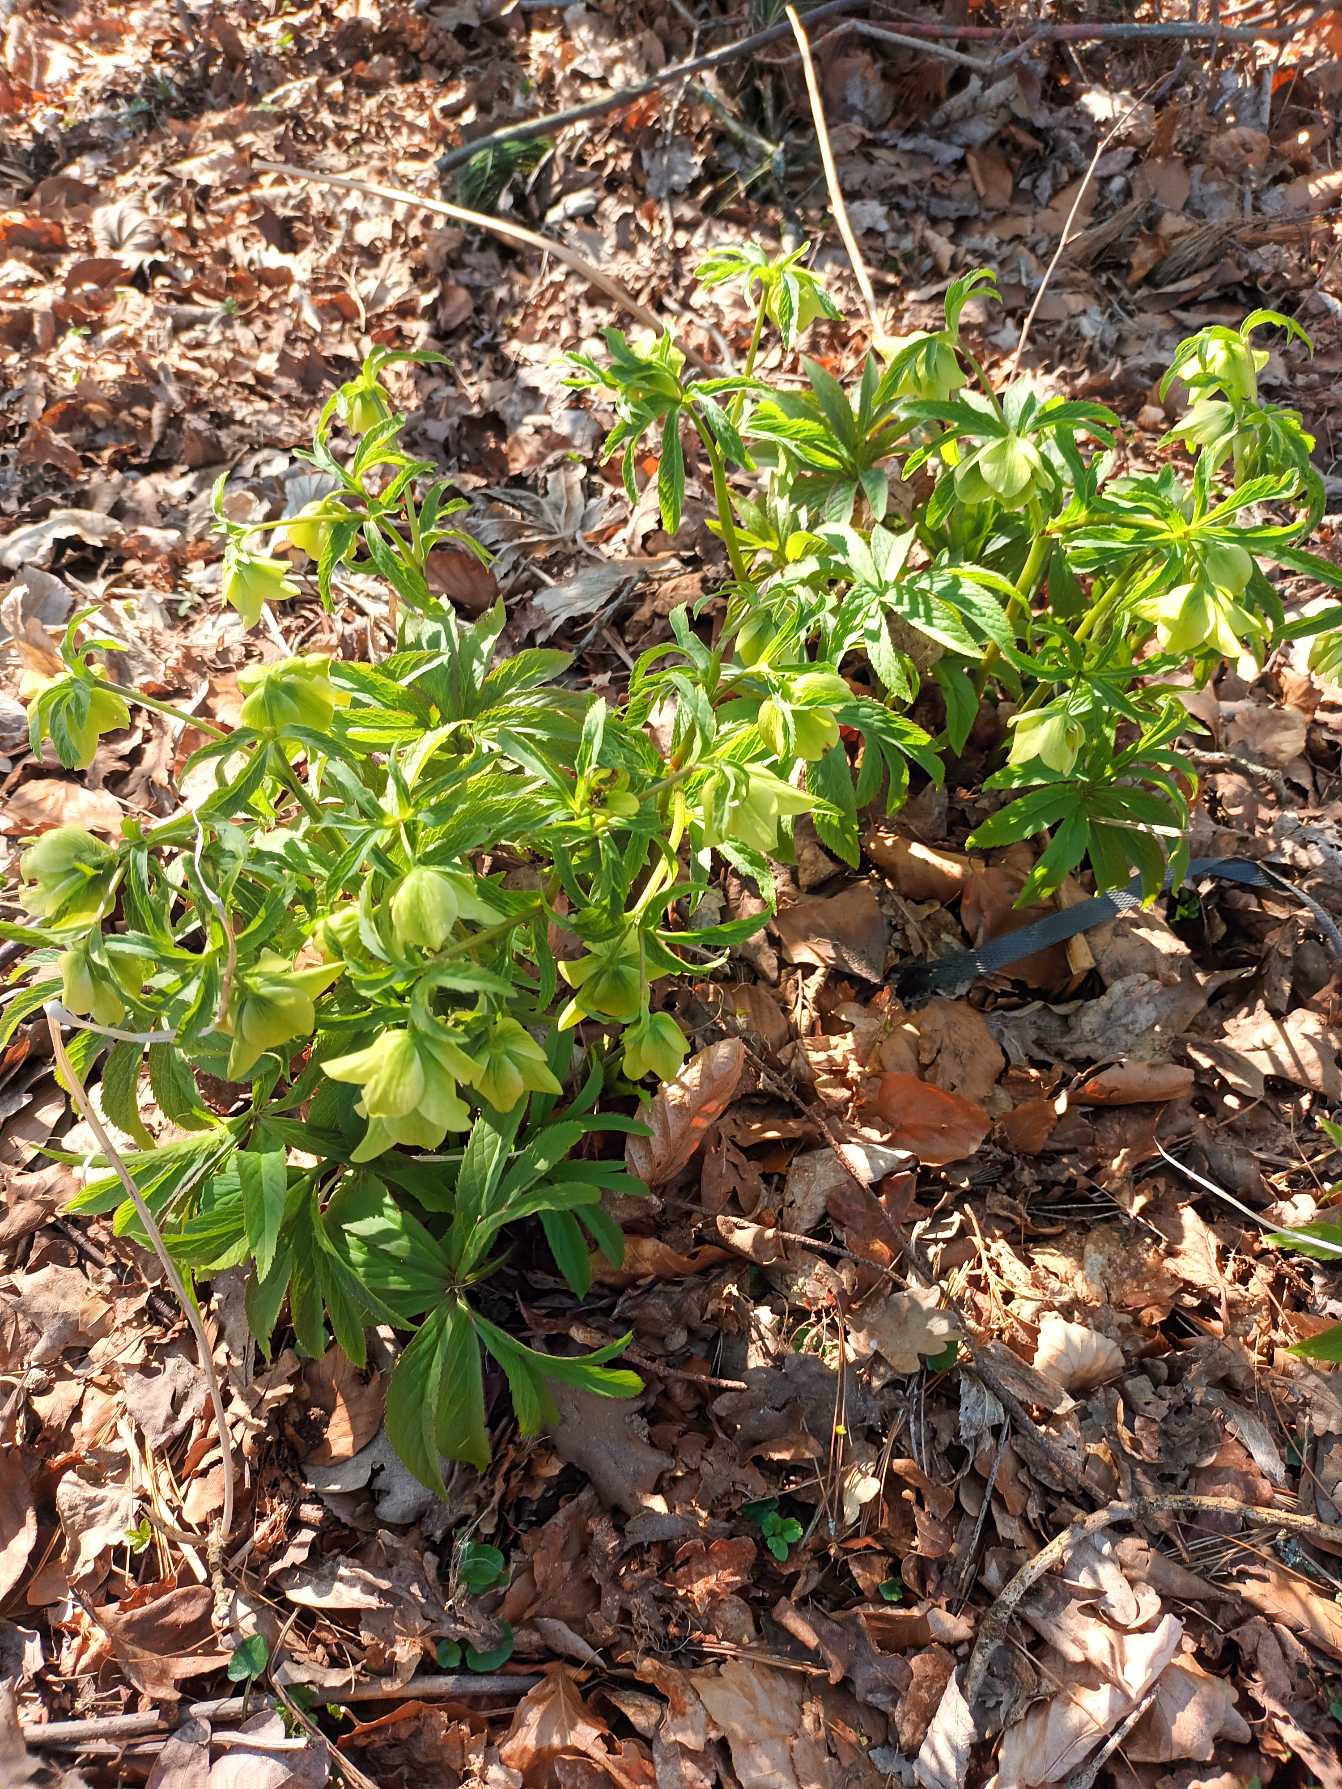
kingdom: Plantae
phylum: Tracheophyta
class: Magnoliopsida
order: Ranunculales
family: Ranunculaceae
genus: Helleborus
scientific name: Helleborus viridis
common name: Grøn julerose
